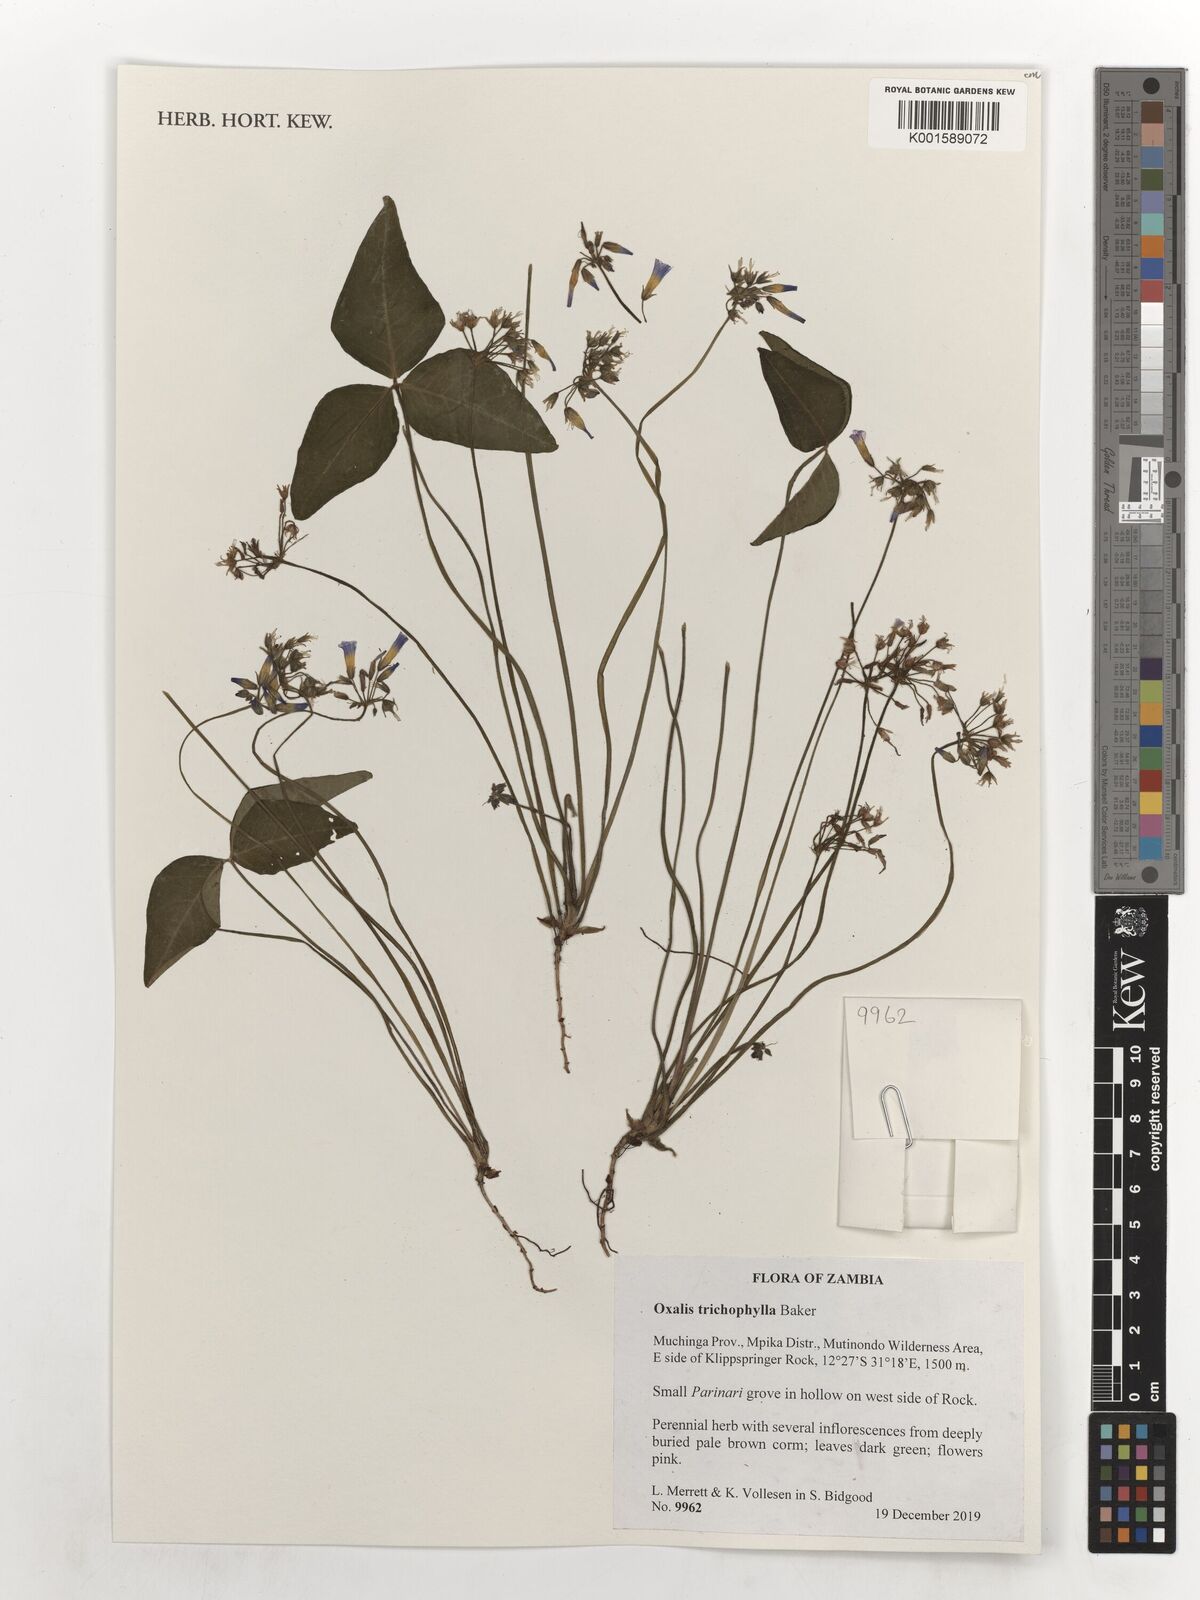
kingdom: Plantae
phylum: Tracheophyta
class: Magnoliopsida
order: Oxalidales
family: Oxalidaceae
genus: Oxalis
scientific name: Oxalis trichophylla
